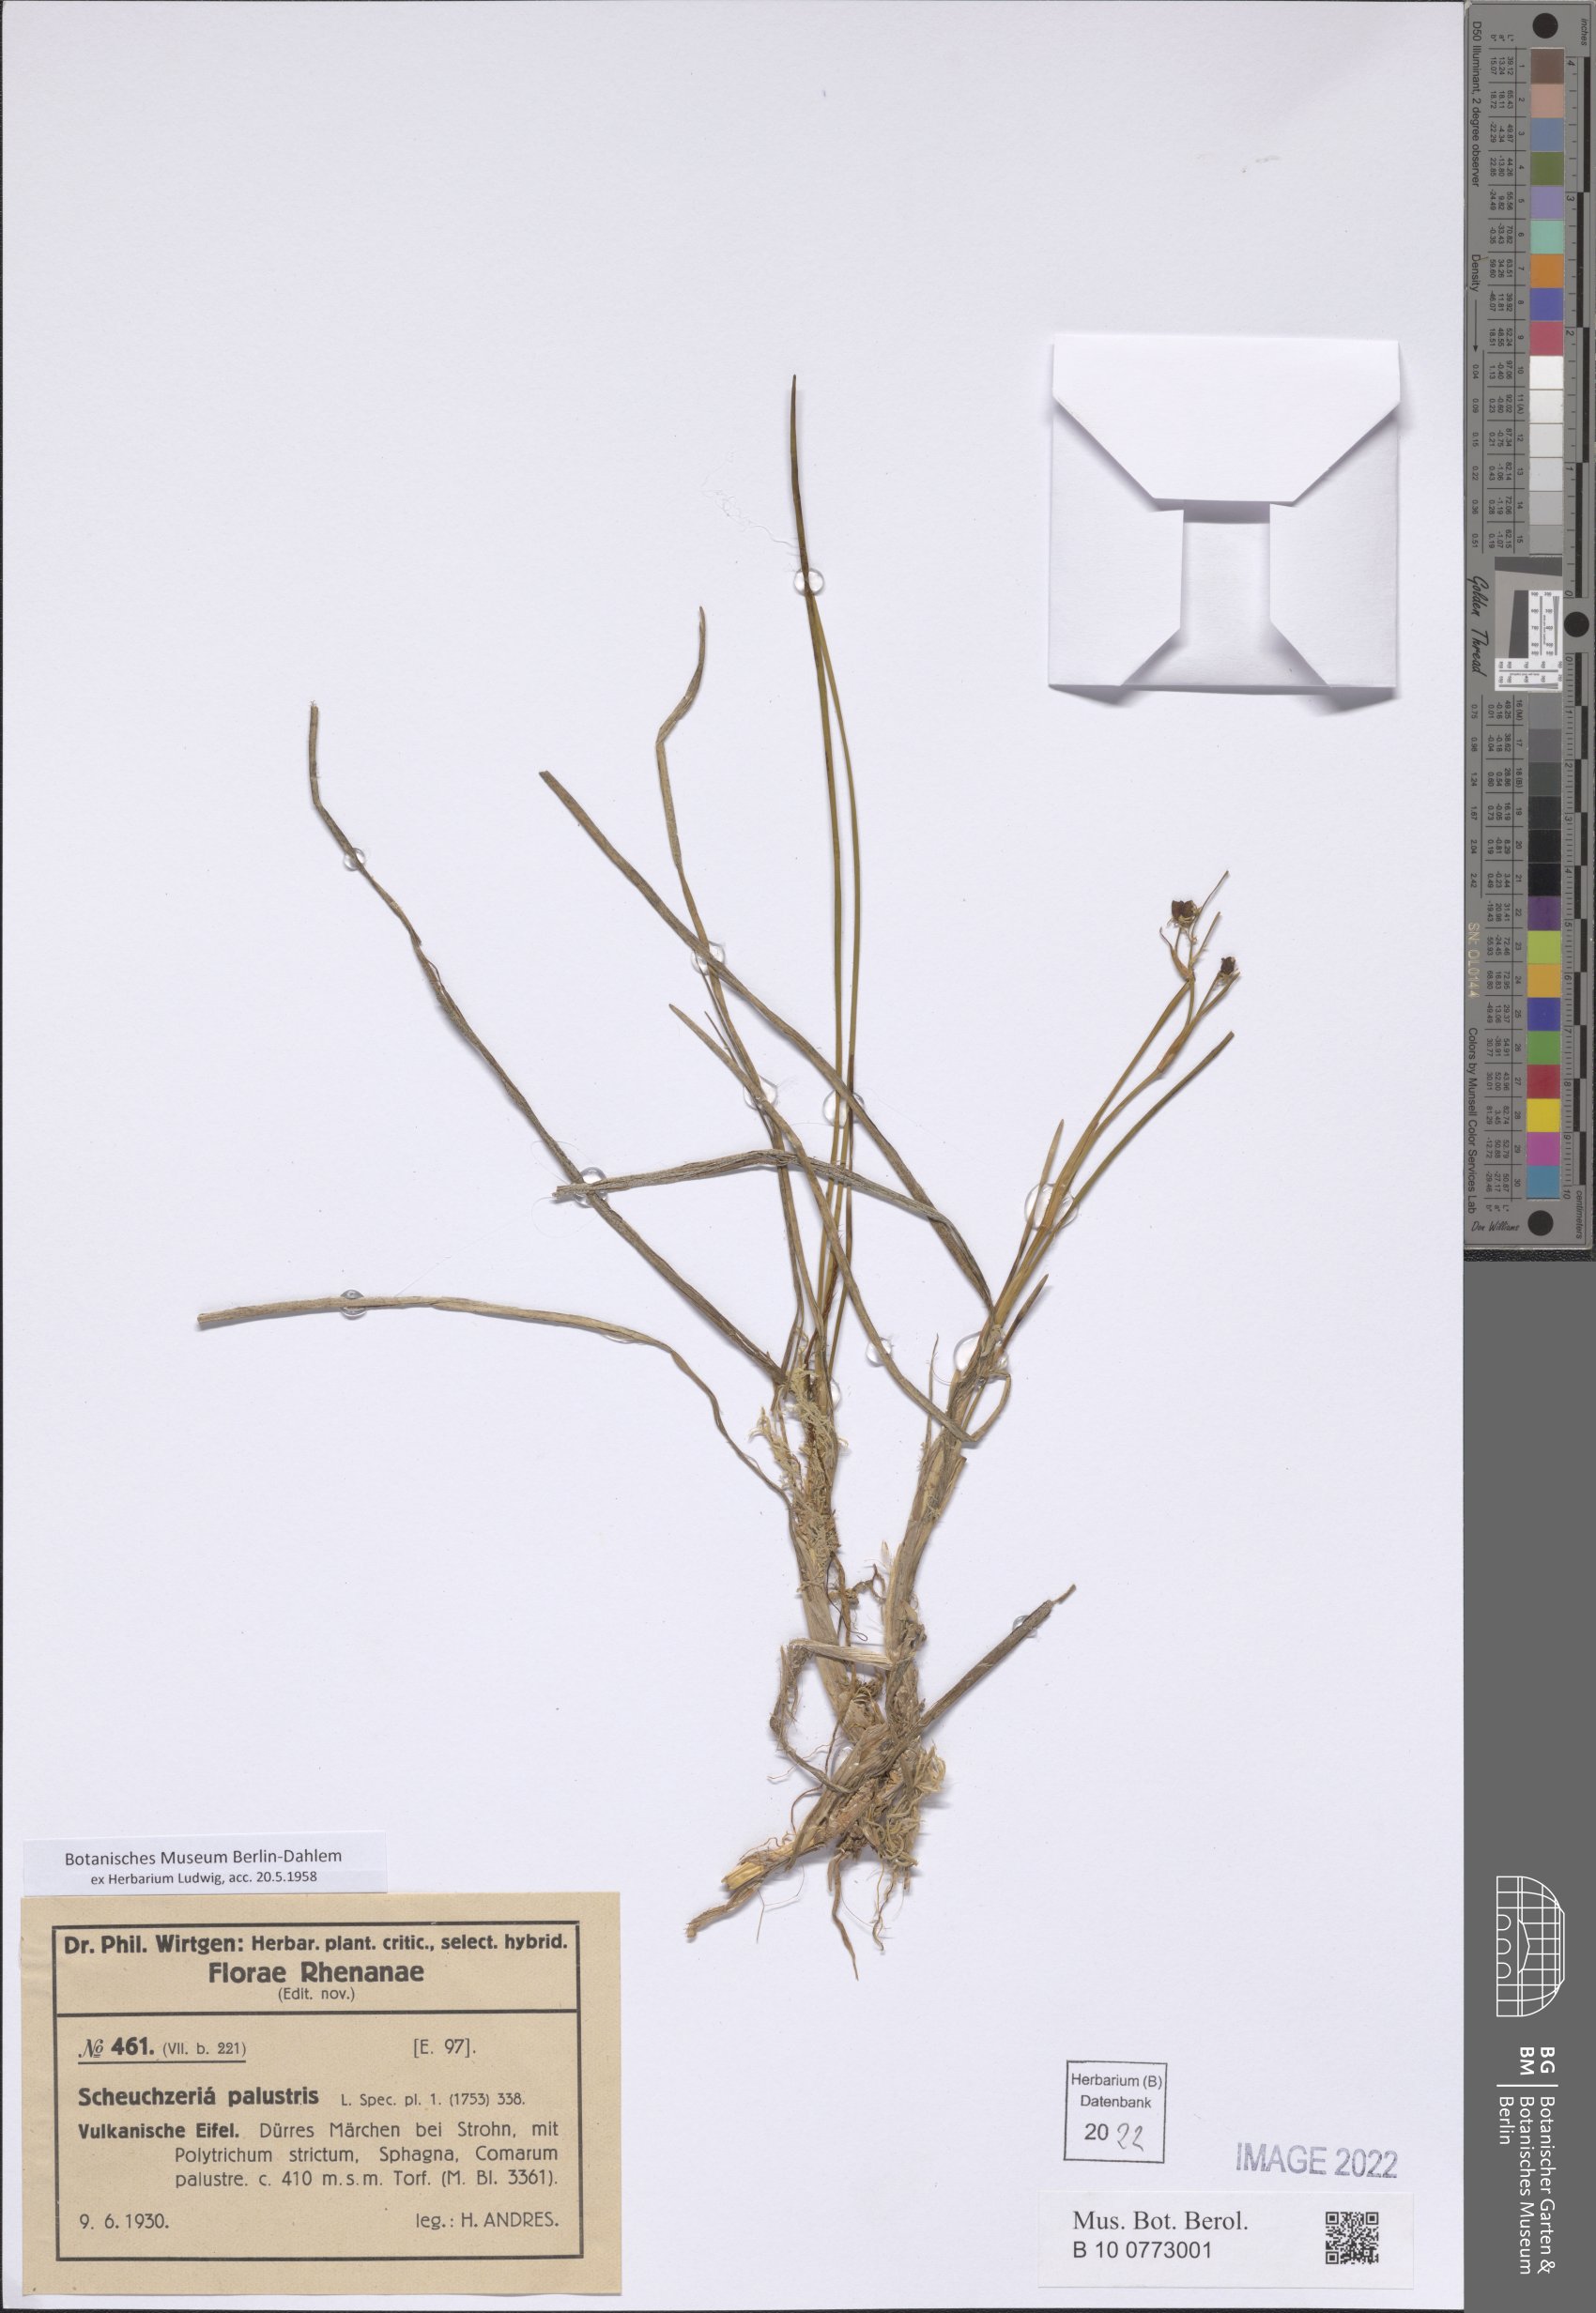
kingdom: Plantae
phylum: Tracheophyta
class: Liliopsida
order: Alismatales
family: Scheuchzeriaceae
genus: Scheuchzeria
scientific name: Scheuchzeria palustris
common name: Rannoch-rush
